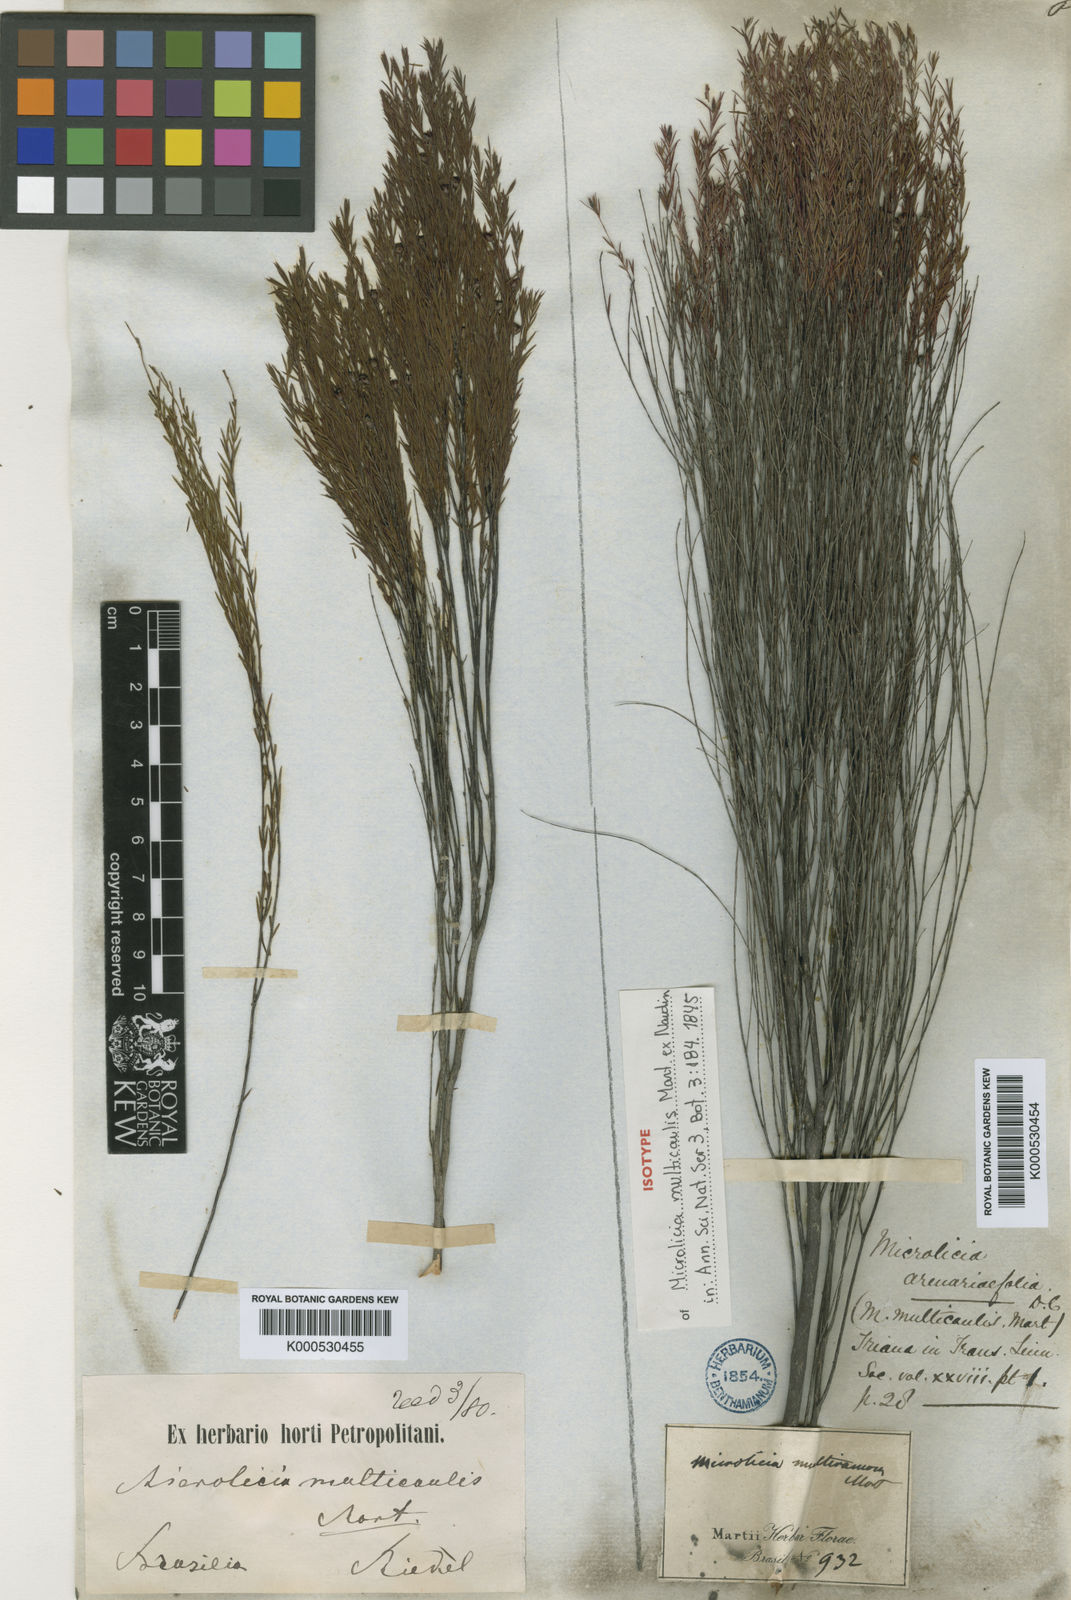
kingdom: Plantae
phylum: Tracheophyta
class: Magnoliopsida
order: Myrtales
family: Melastomataceae
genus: Microlicia
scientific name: Microlicia multicaulis
